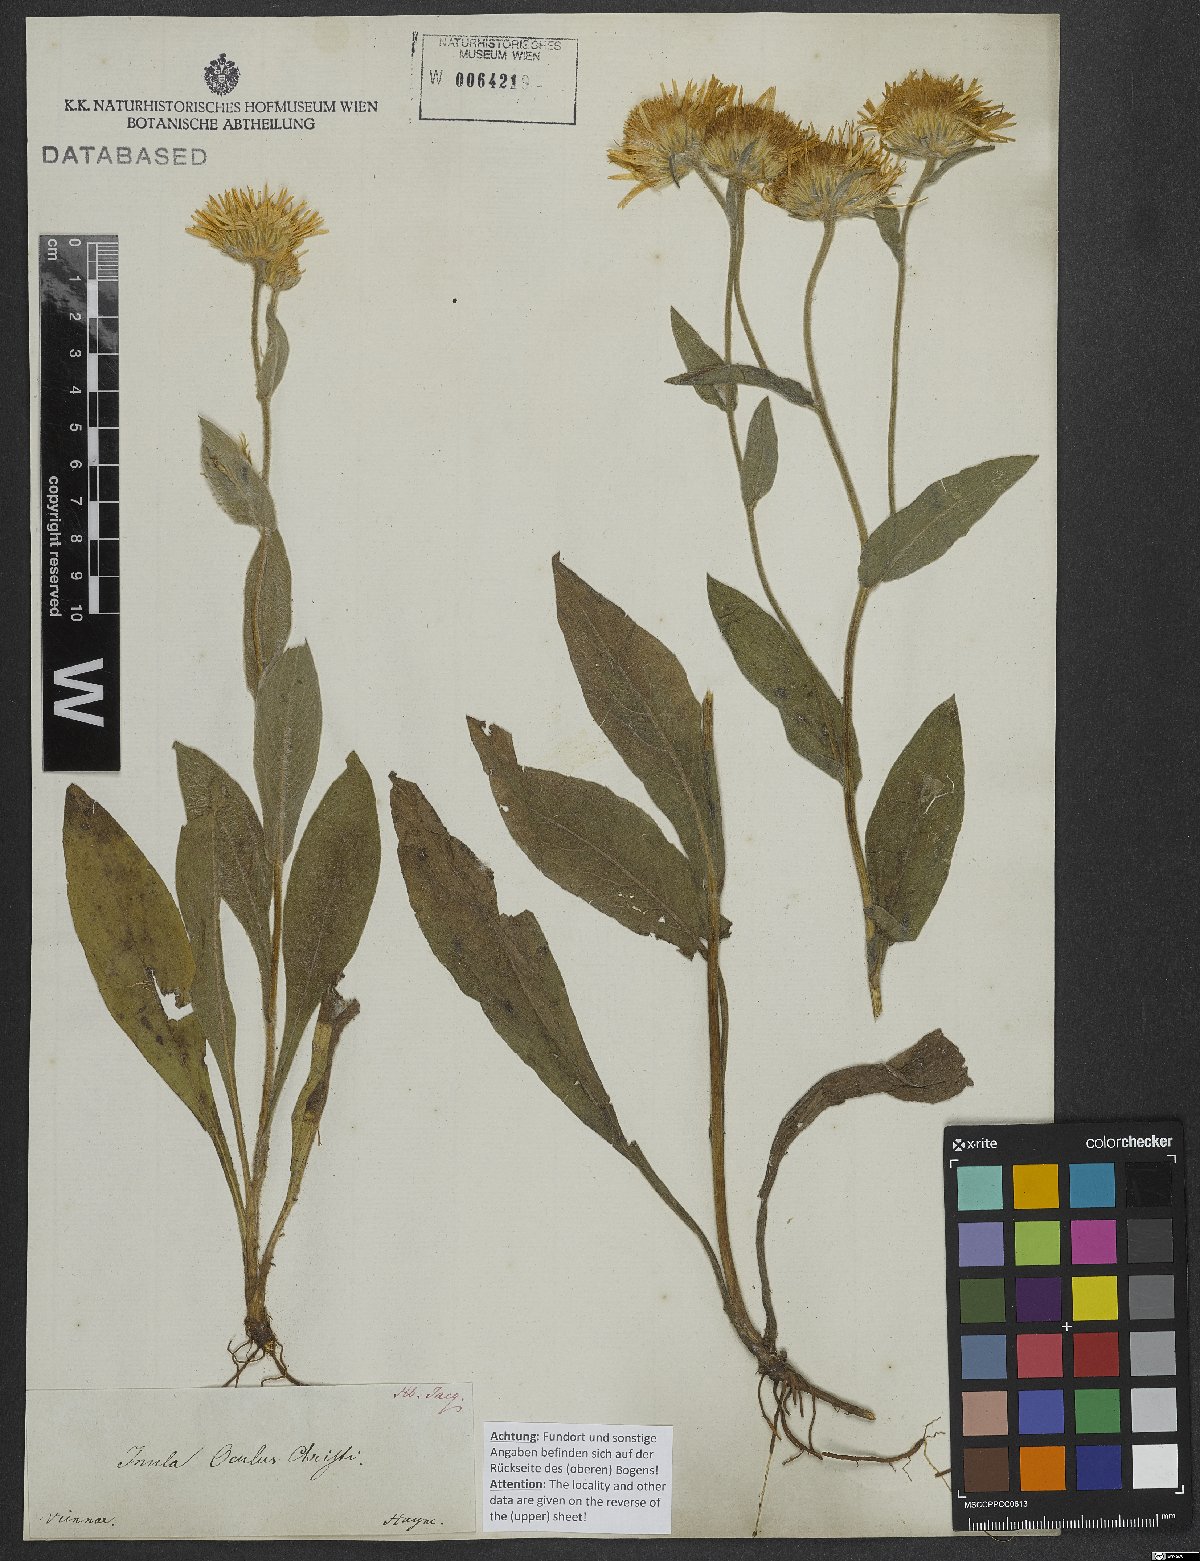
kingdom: Plantae
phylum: Tracheophyta
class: Magnoliopsida
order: Asterales
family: Asteraceae
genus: Pentanema
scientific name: Pentanema oculus-christi
